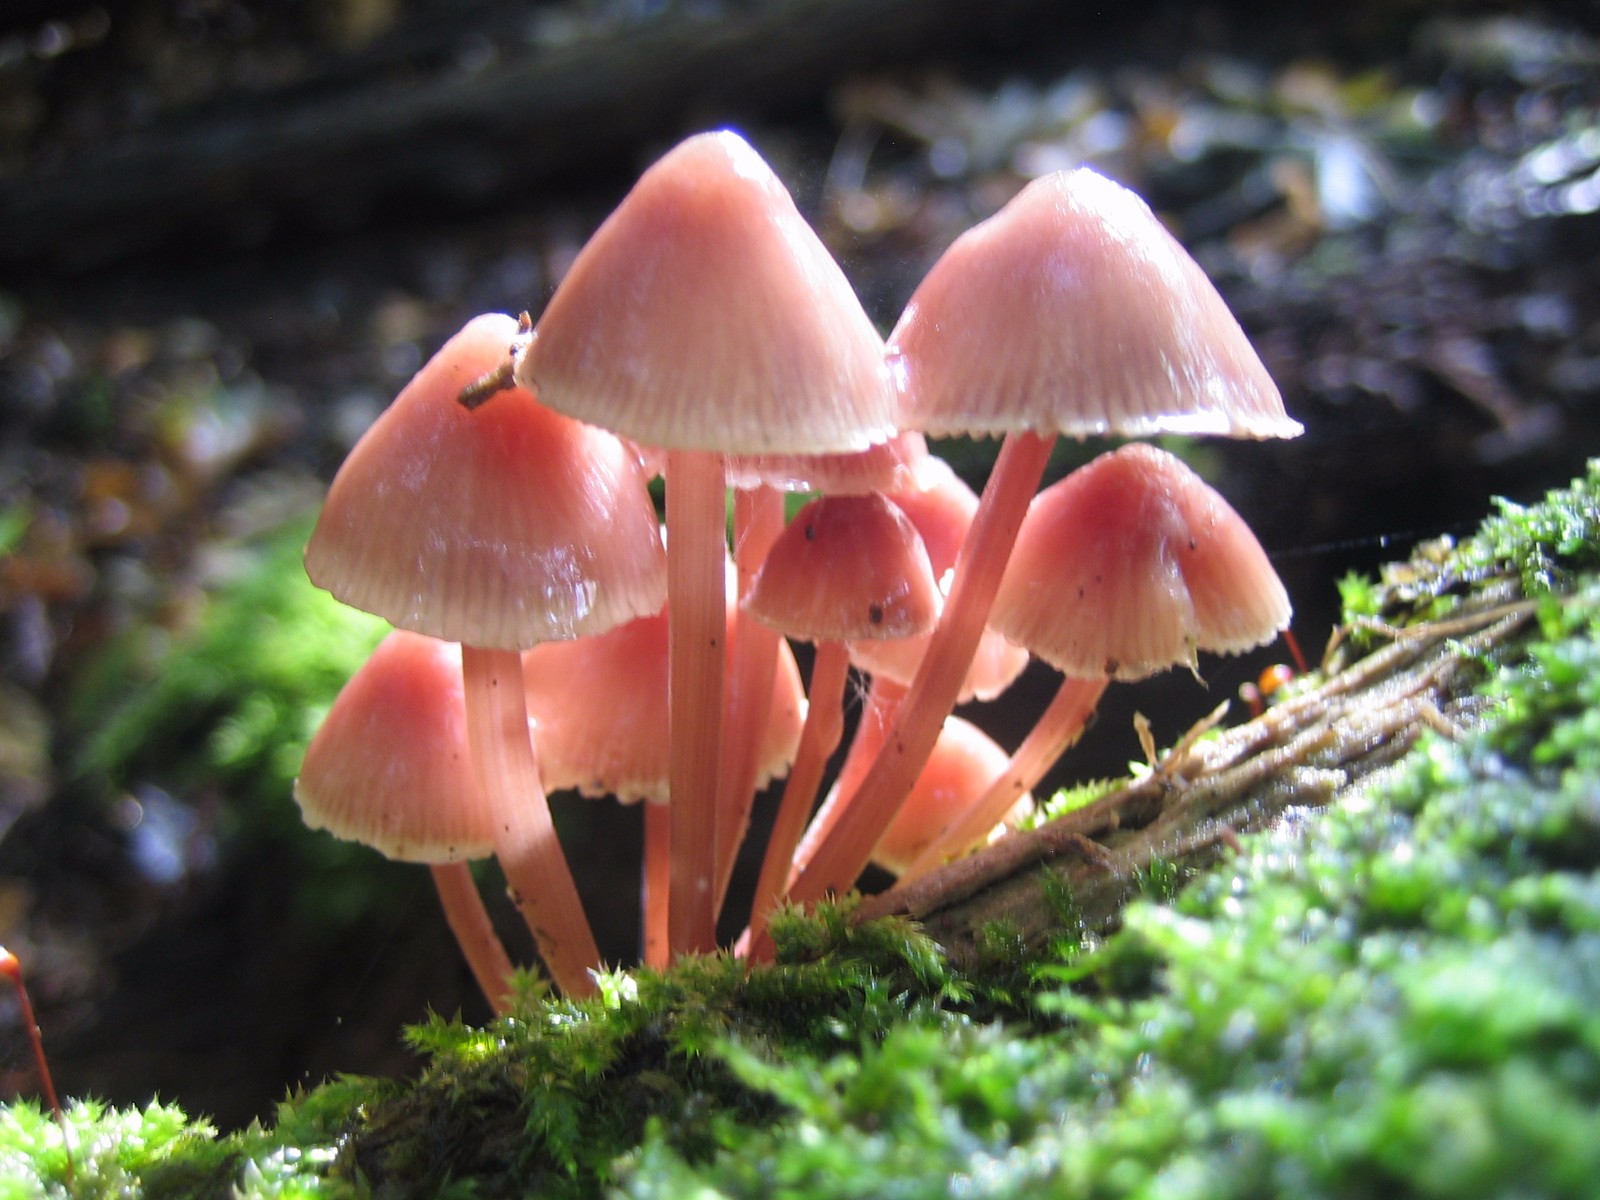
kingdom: Fungi
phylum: Basidiomycota
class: Agaricomycetes
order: Agaricales
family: Mycenaceae
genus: Mycena
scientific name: Mycena haematopus
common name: blødende huesvamp
